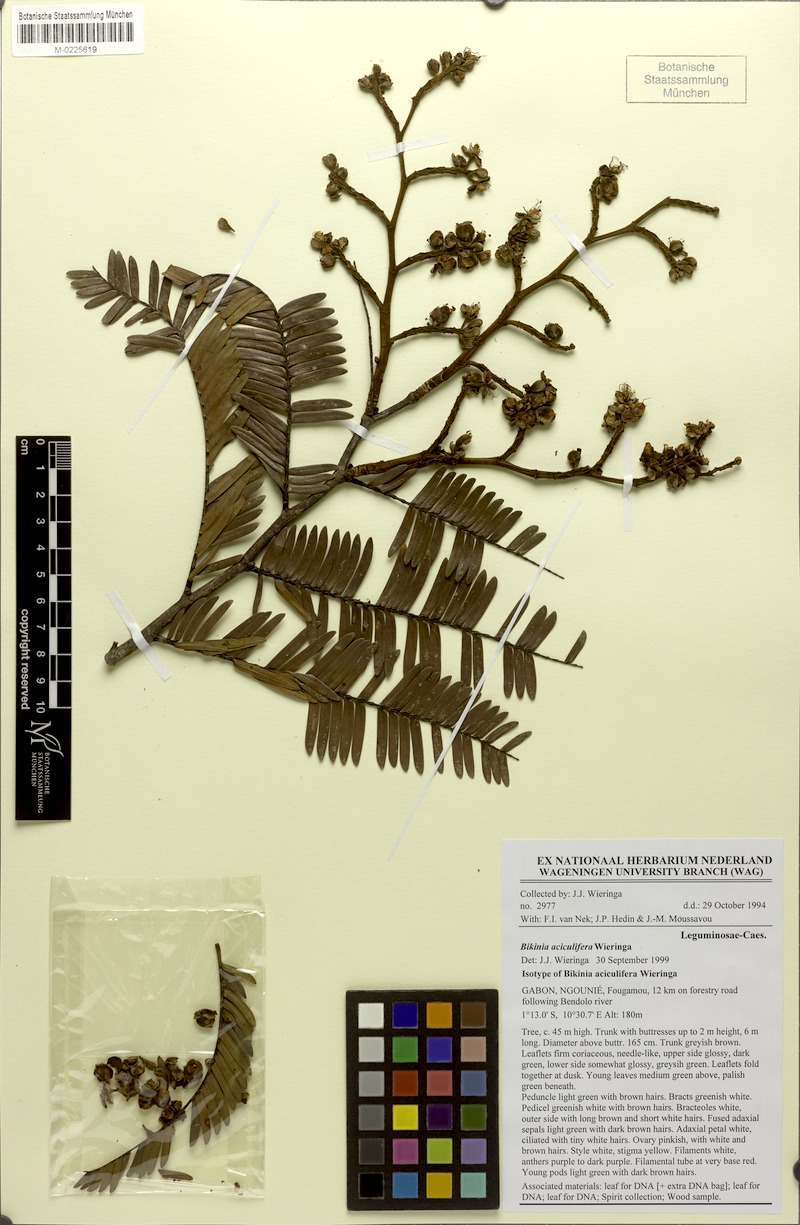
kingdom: Plantae
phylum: Tracheophyta
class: Magnoliopsida
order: Fabales
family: Fabaceae
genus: Bikinia
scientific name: Bikinia aciculifera
